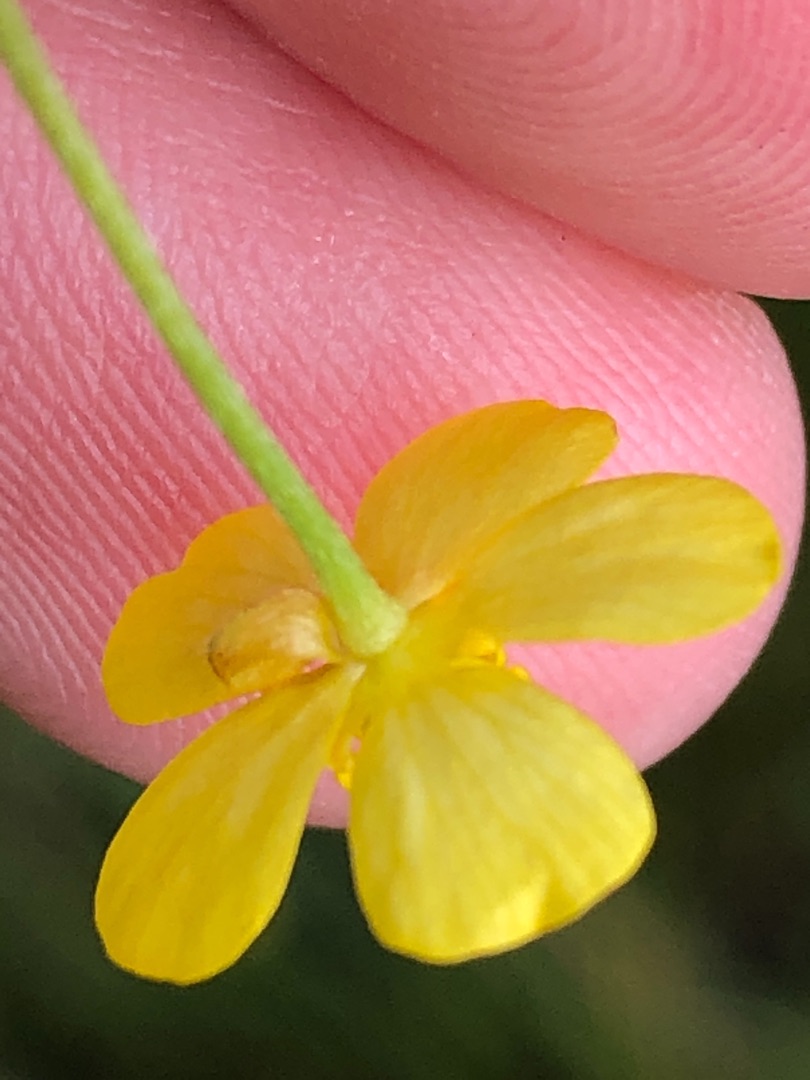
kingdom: Plantae
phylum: Tracheophyta
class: Magnoliopsida
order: Ranunculales
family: Ranunculaceae
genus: Ranunculus
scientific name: Ranunculus flammula
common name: Kær-ranunkel
